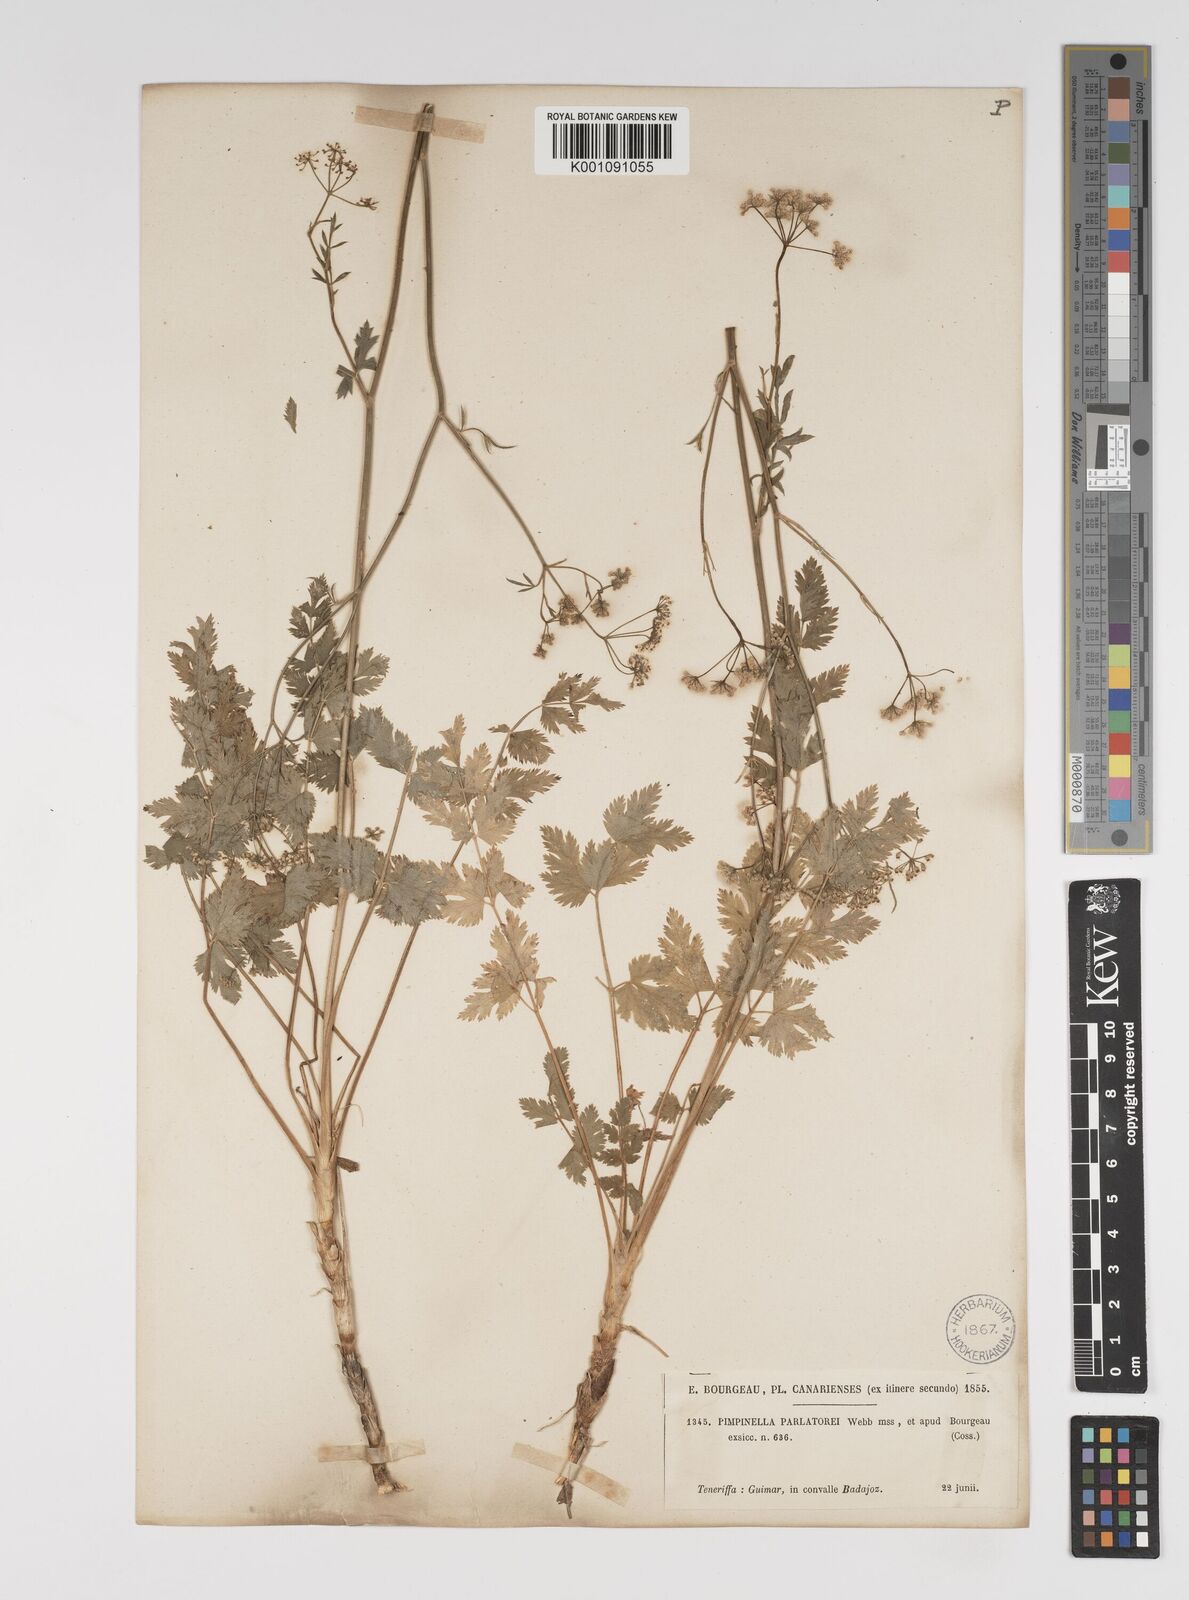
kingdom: Plantae
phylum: Tracheophyta
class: Magnoliopsida
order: Apiales
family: Apiaceae
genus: Pimpinella
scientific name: Pimpinella dendroselinum
